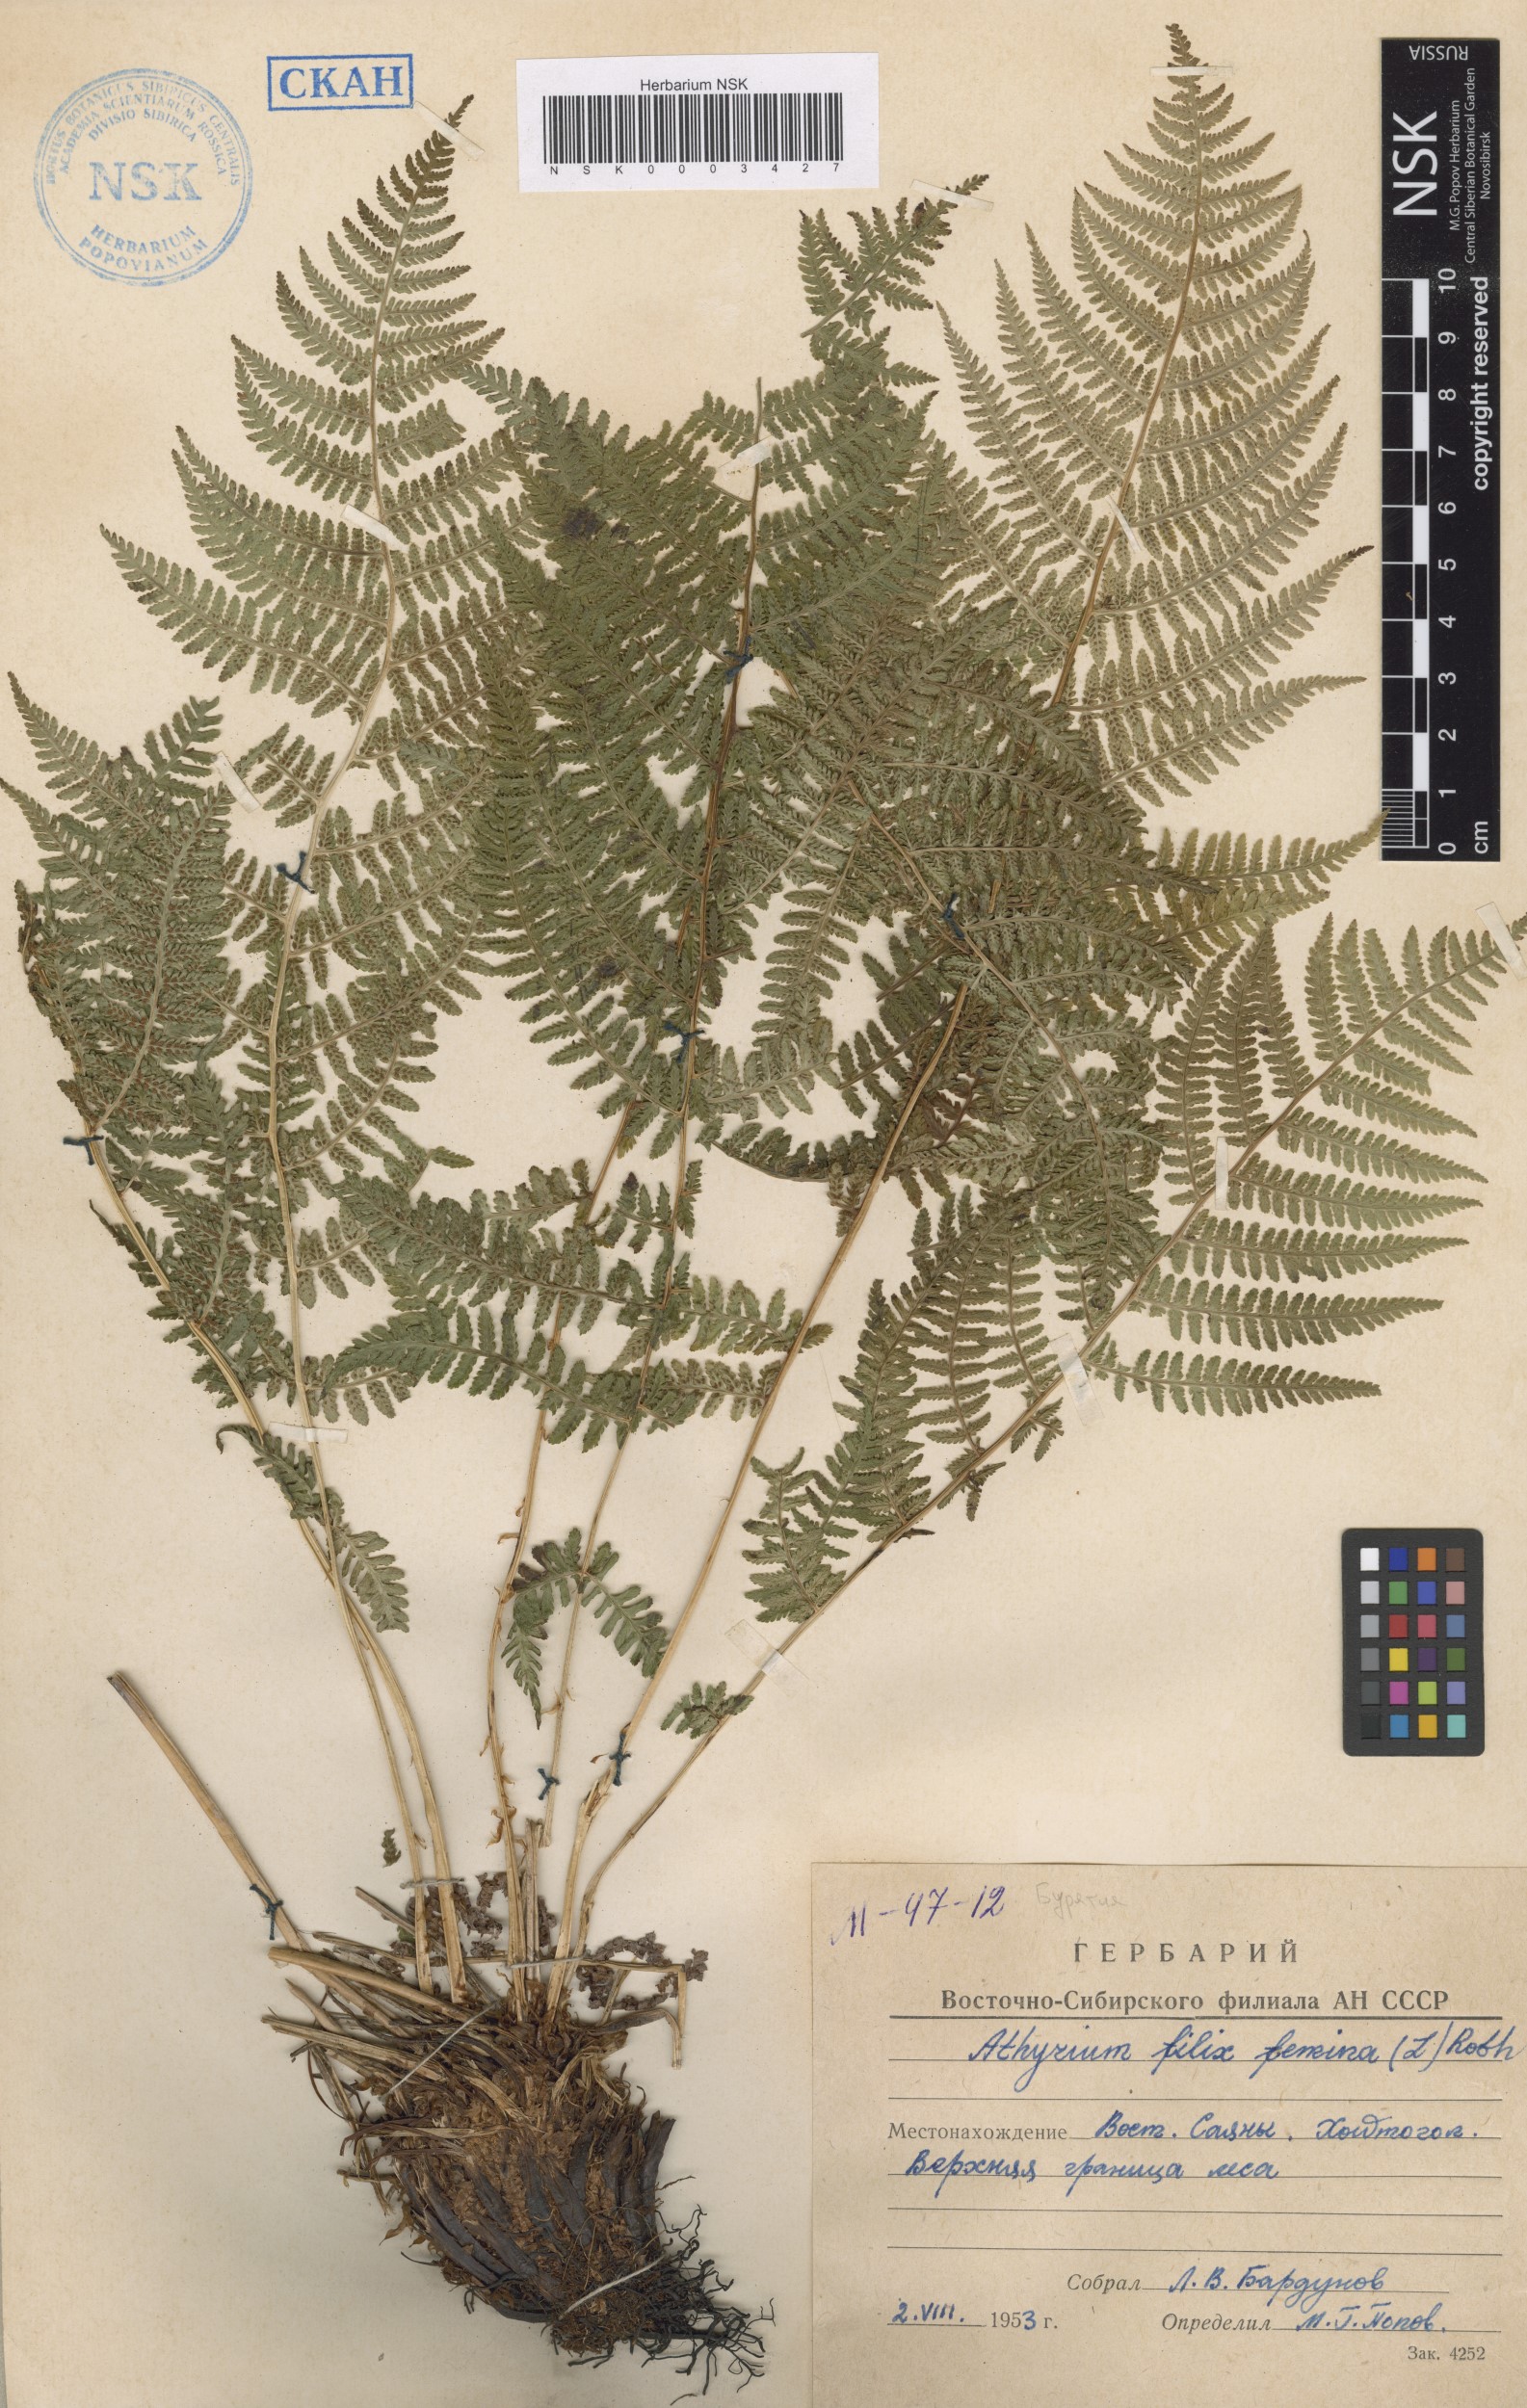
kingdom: Plantae
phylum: Tracheophyta
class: Polypodiopsida
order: Polypodiales
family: Athyriaceae
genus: Athyrium
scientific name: Athyrium filix-femina
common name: Lady fern
